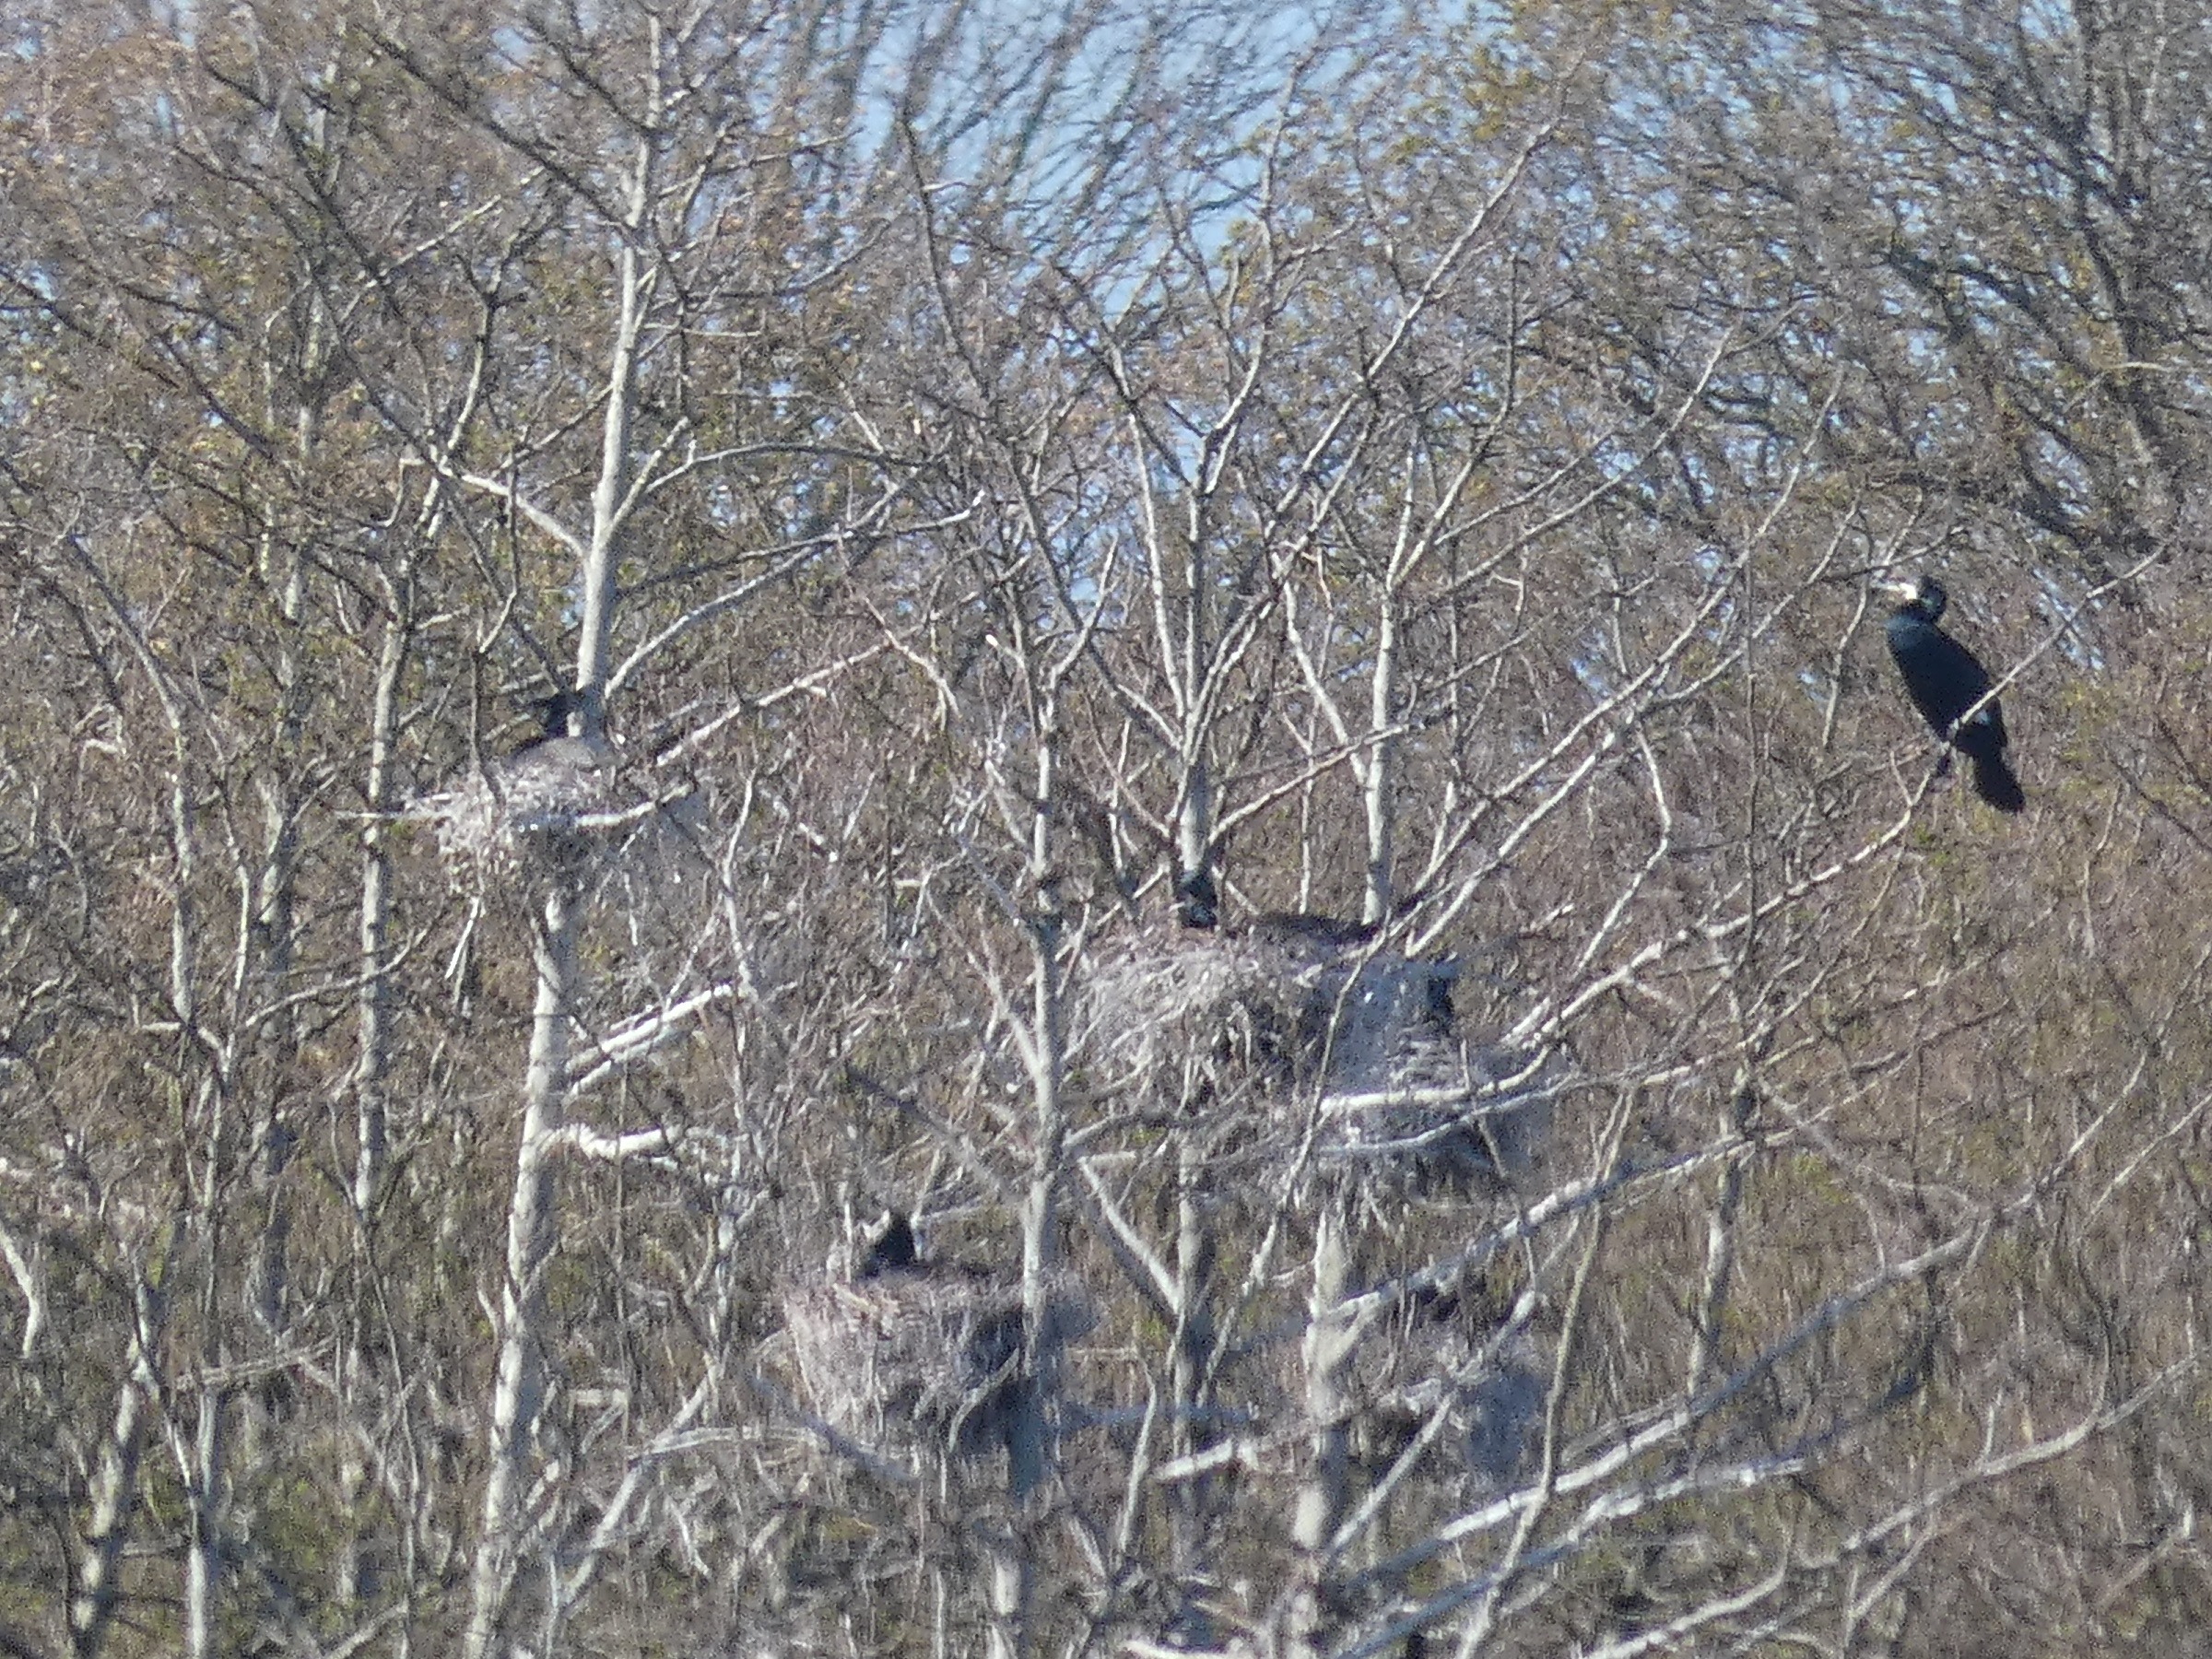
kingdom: Animalia
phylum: Chordata
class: Aves
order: Suliformes
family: Phalacrocoracidae
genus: Phalacrocorax
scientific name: Phalacrocorax carbo
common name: Skarv
